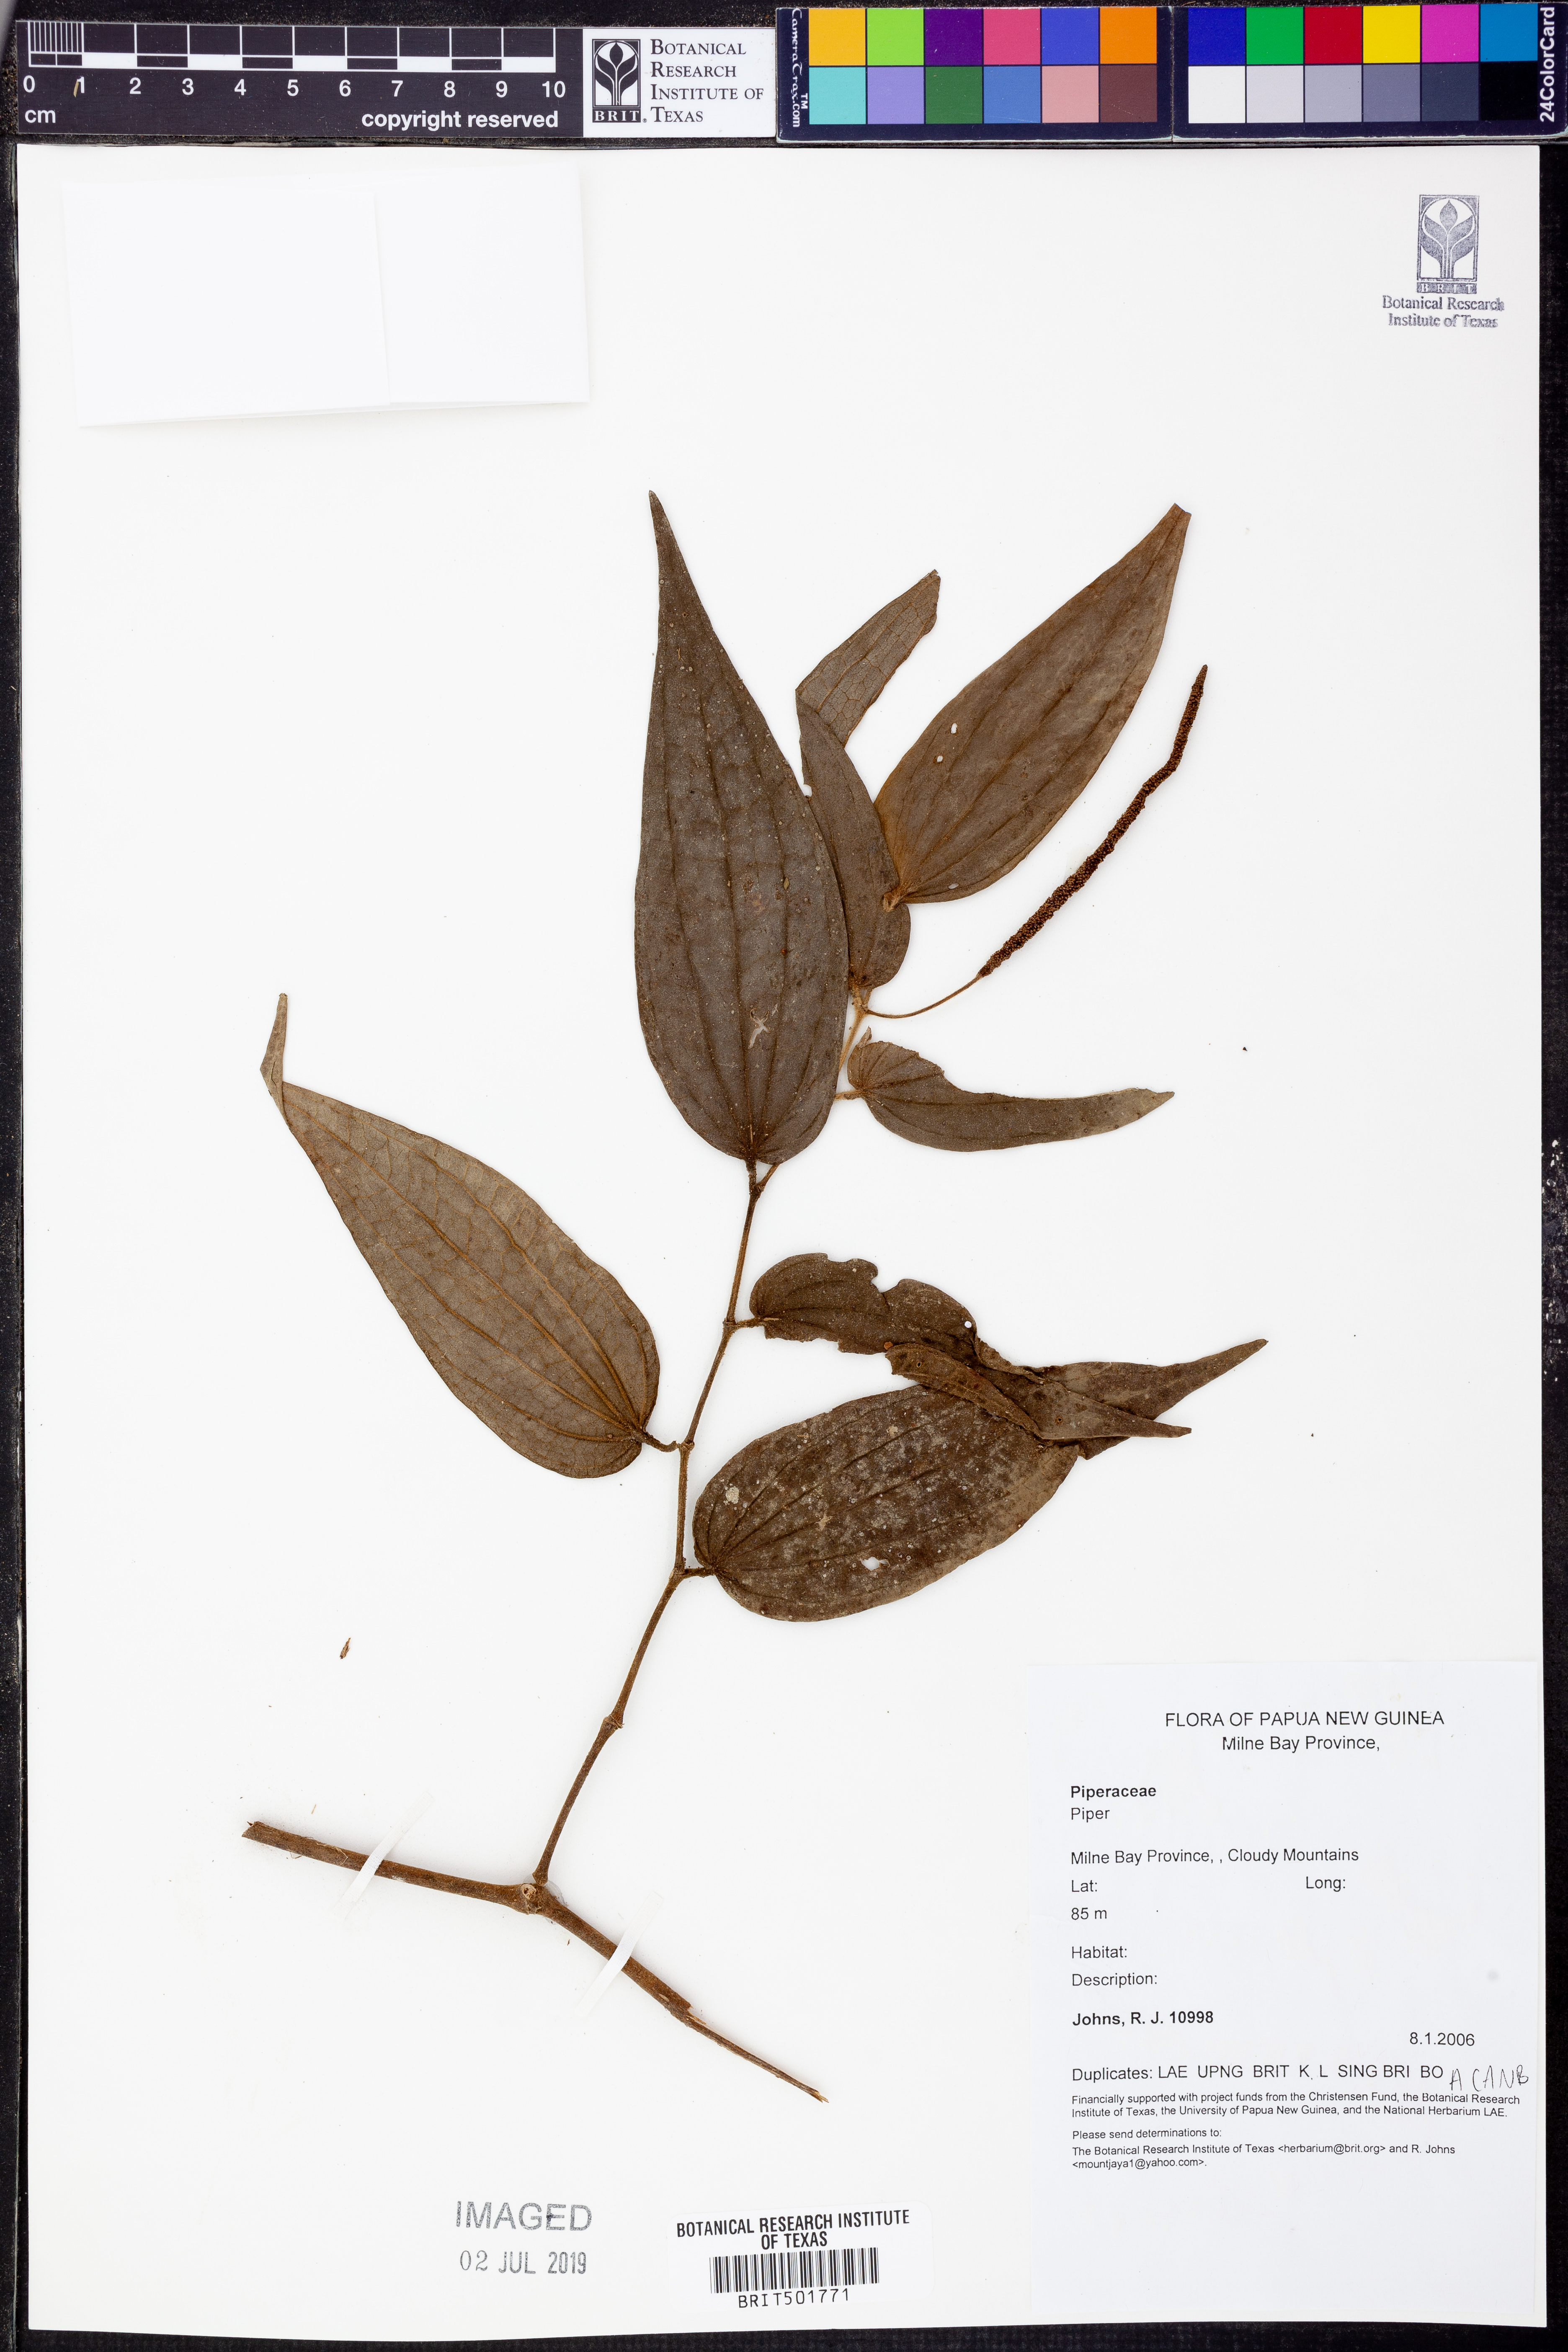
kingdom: Plantae
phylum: Tracheophyta
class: Magnoliopsida
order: Piperales
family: Piperaceae
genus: Piper
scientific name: Piper
